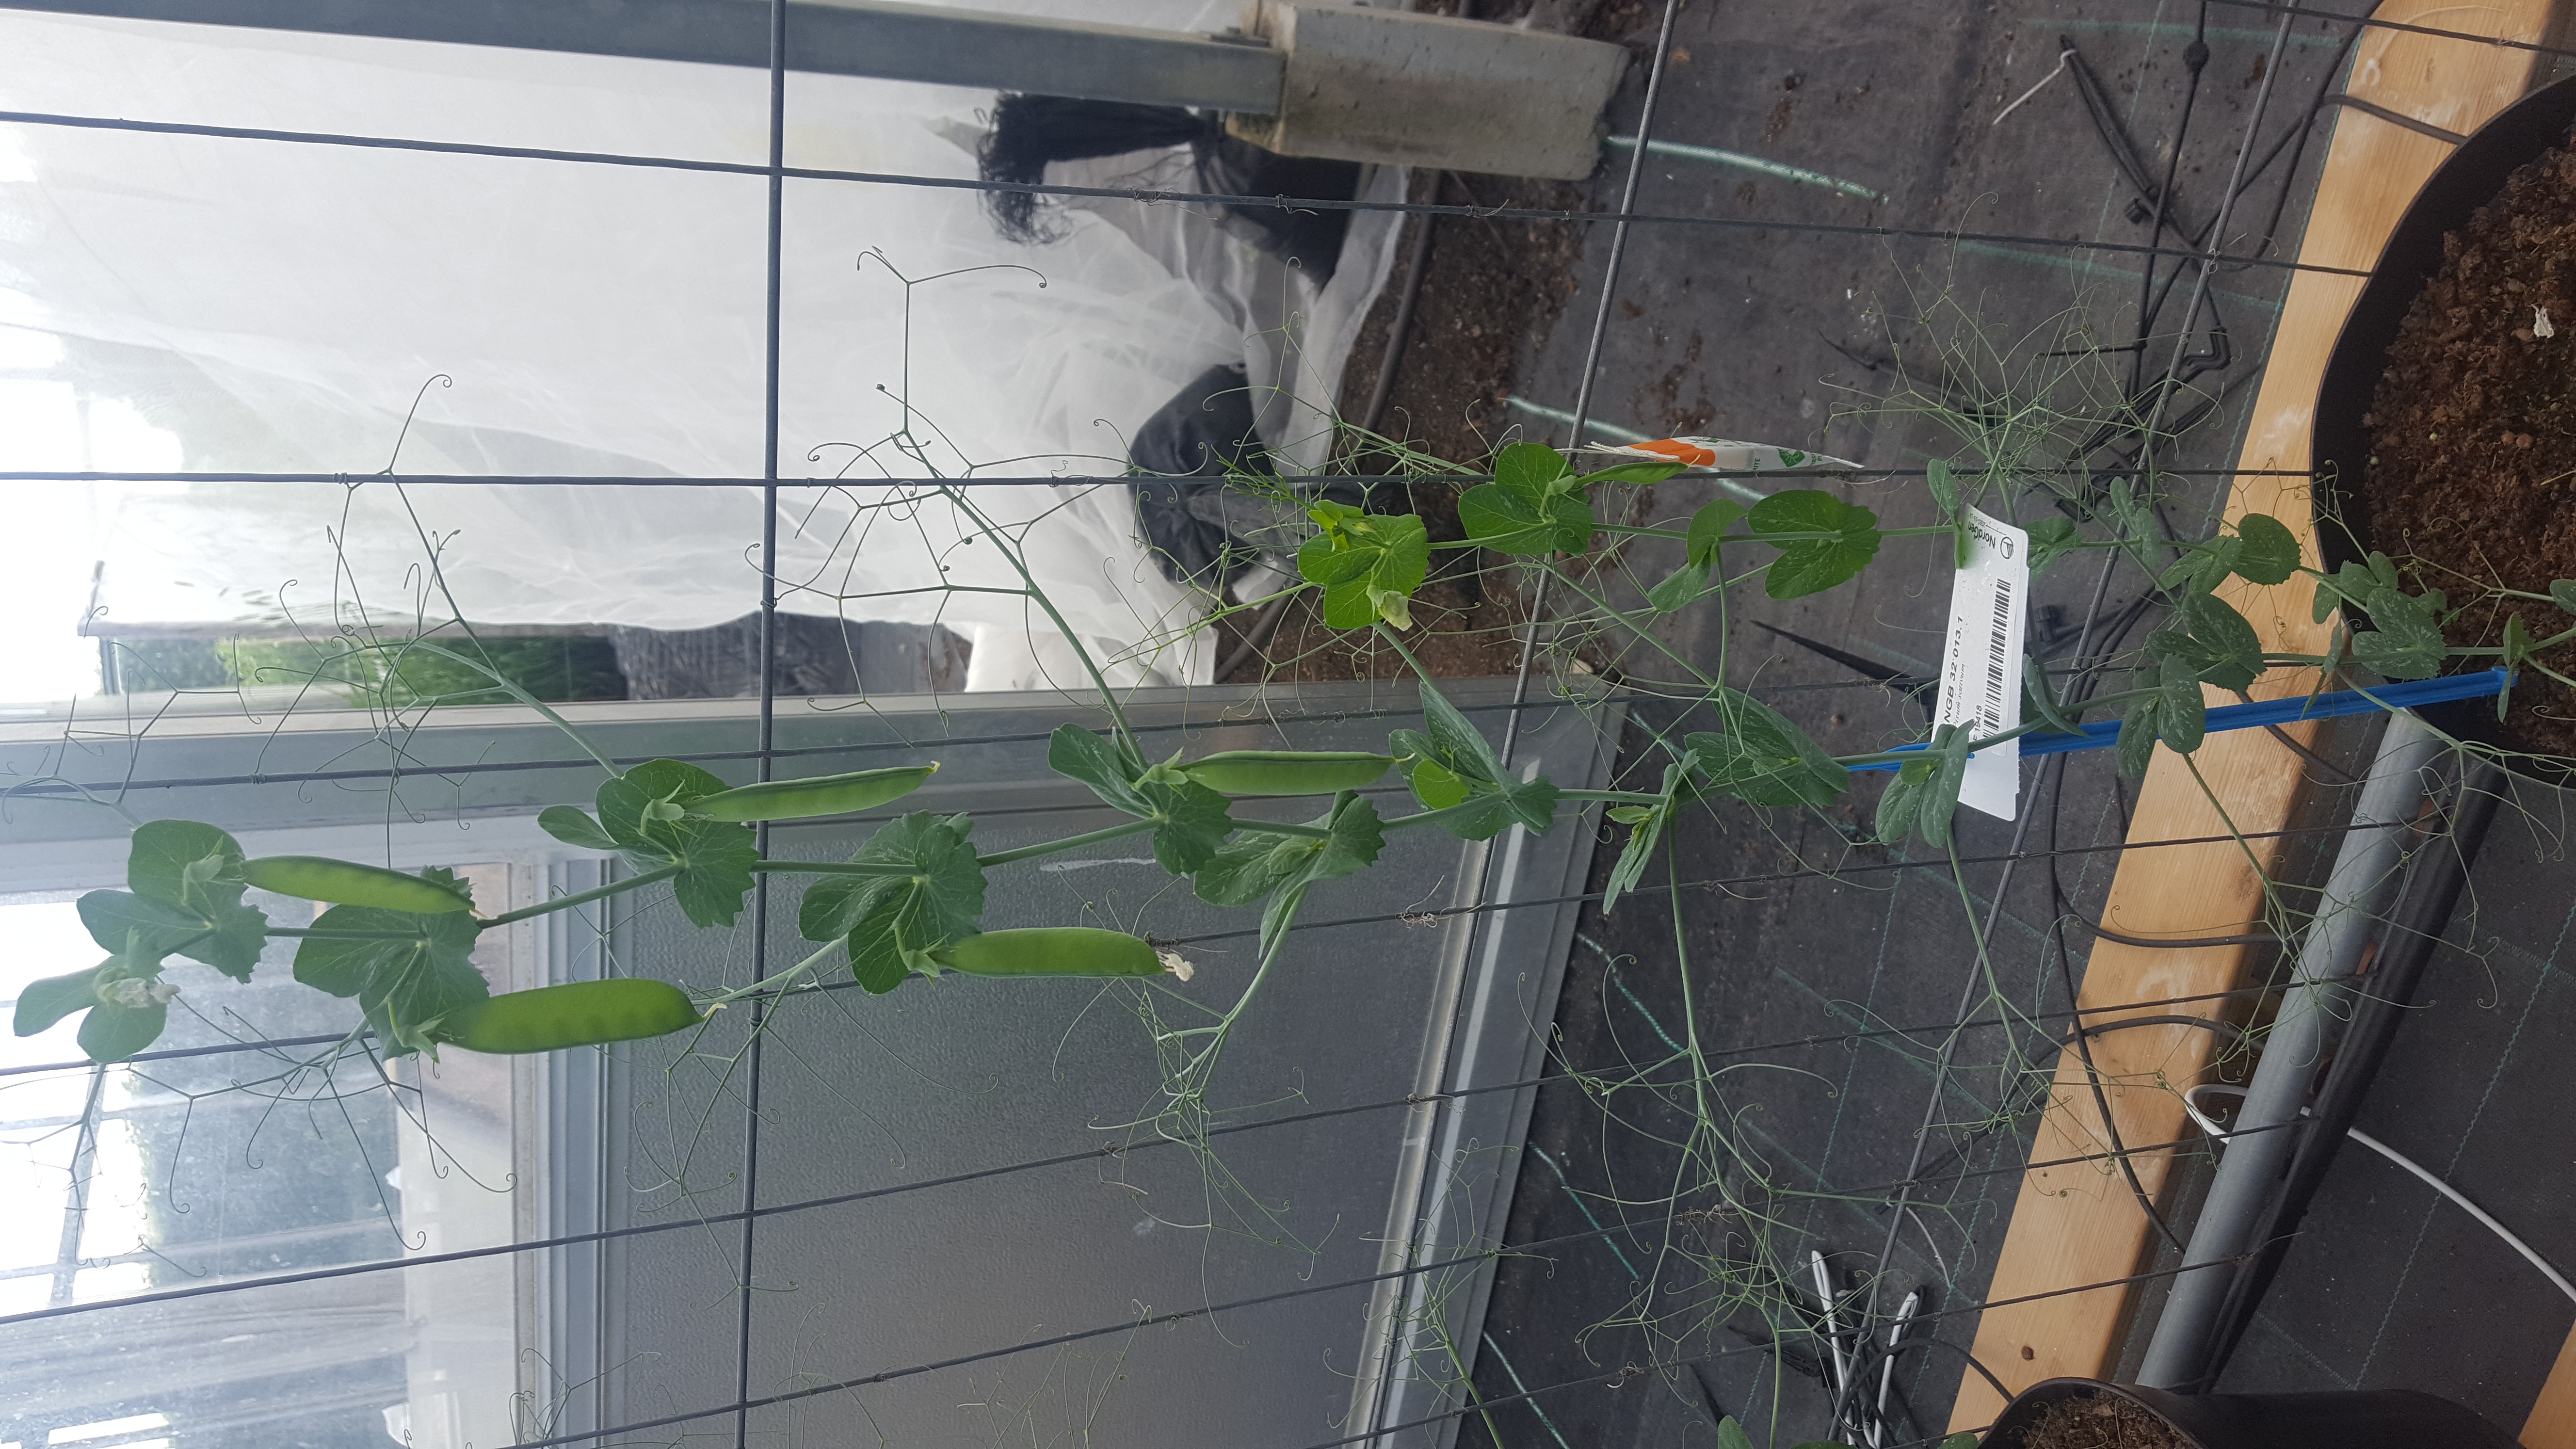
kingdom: Plantae
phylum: Tracheophyta
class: Magnoliopsida
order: Fabales
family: Fabaceae
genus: Lathyrus
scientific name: Lathyrus oleraceus
